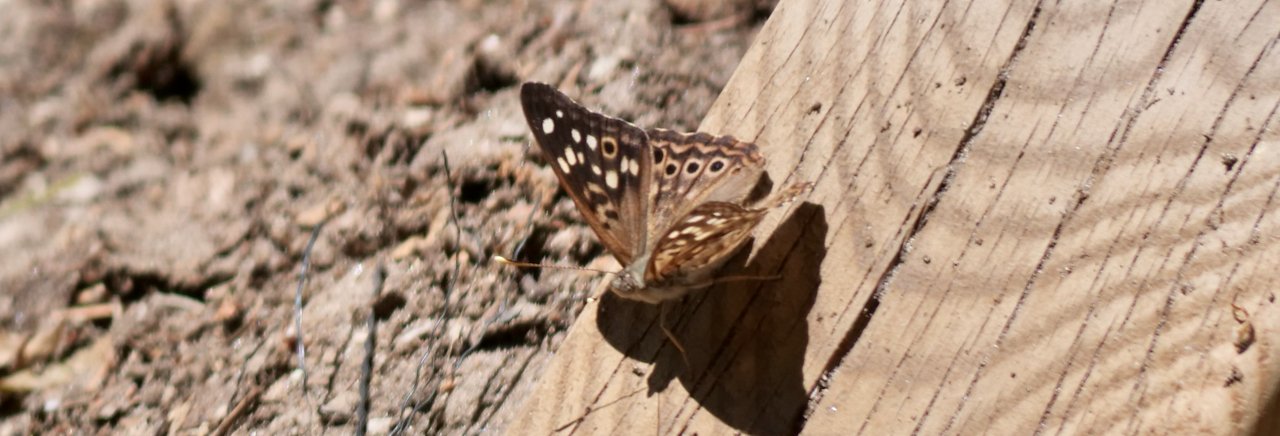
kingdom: Animalia
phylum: Arthropoda
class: Insecta
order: Lepidoptera
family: Nymphalidae
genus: Asterocampa
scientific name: Asterocampa celtis
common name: Hackberry Emperor
